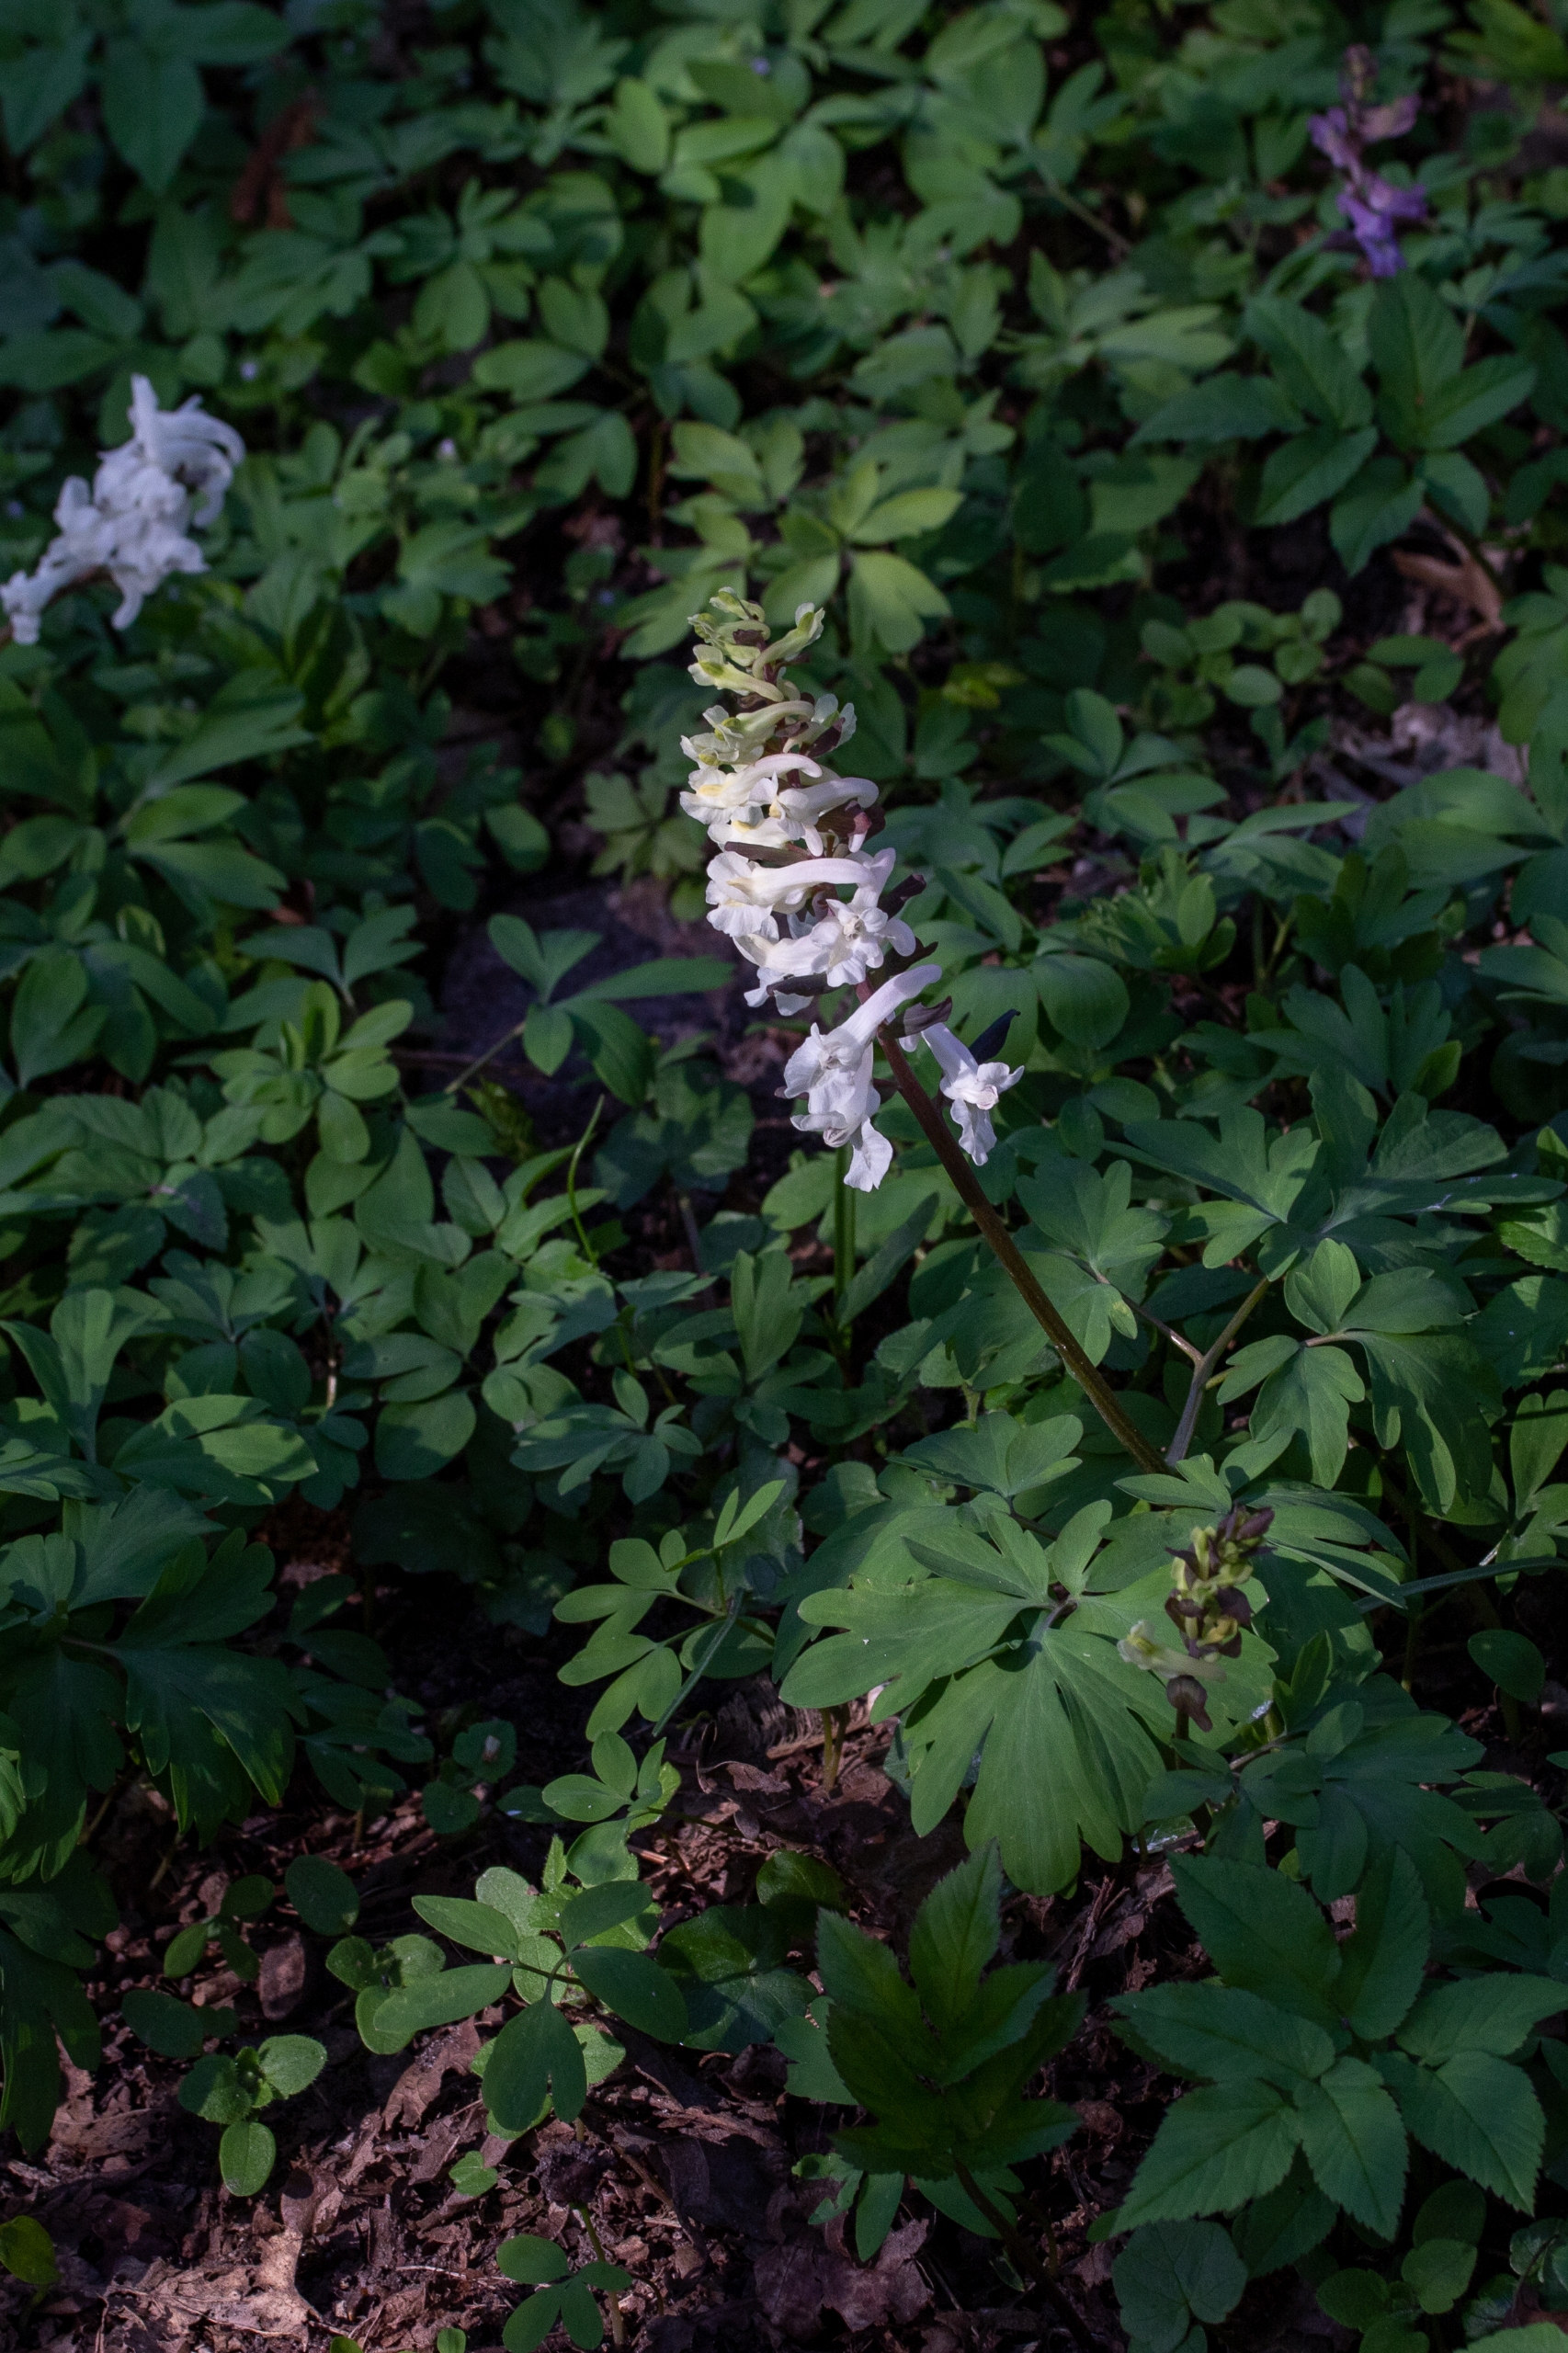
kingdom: Plantae
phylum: Tracheophyta
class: Magnoliopsida
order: Ranunculales
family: Papaveraceae
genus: Corydalis
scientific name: Corydalis cava
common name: Hulrodet lærkespore
